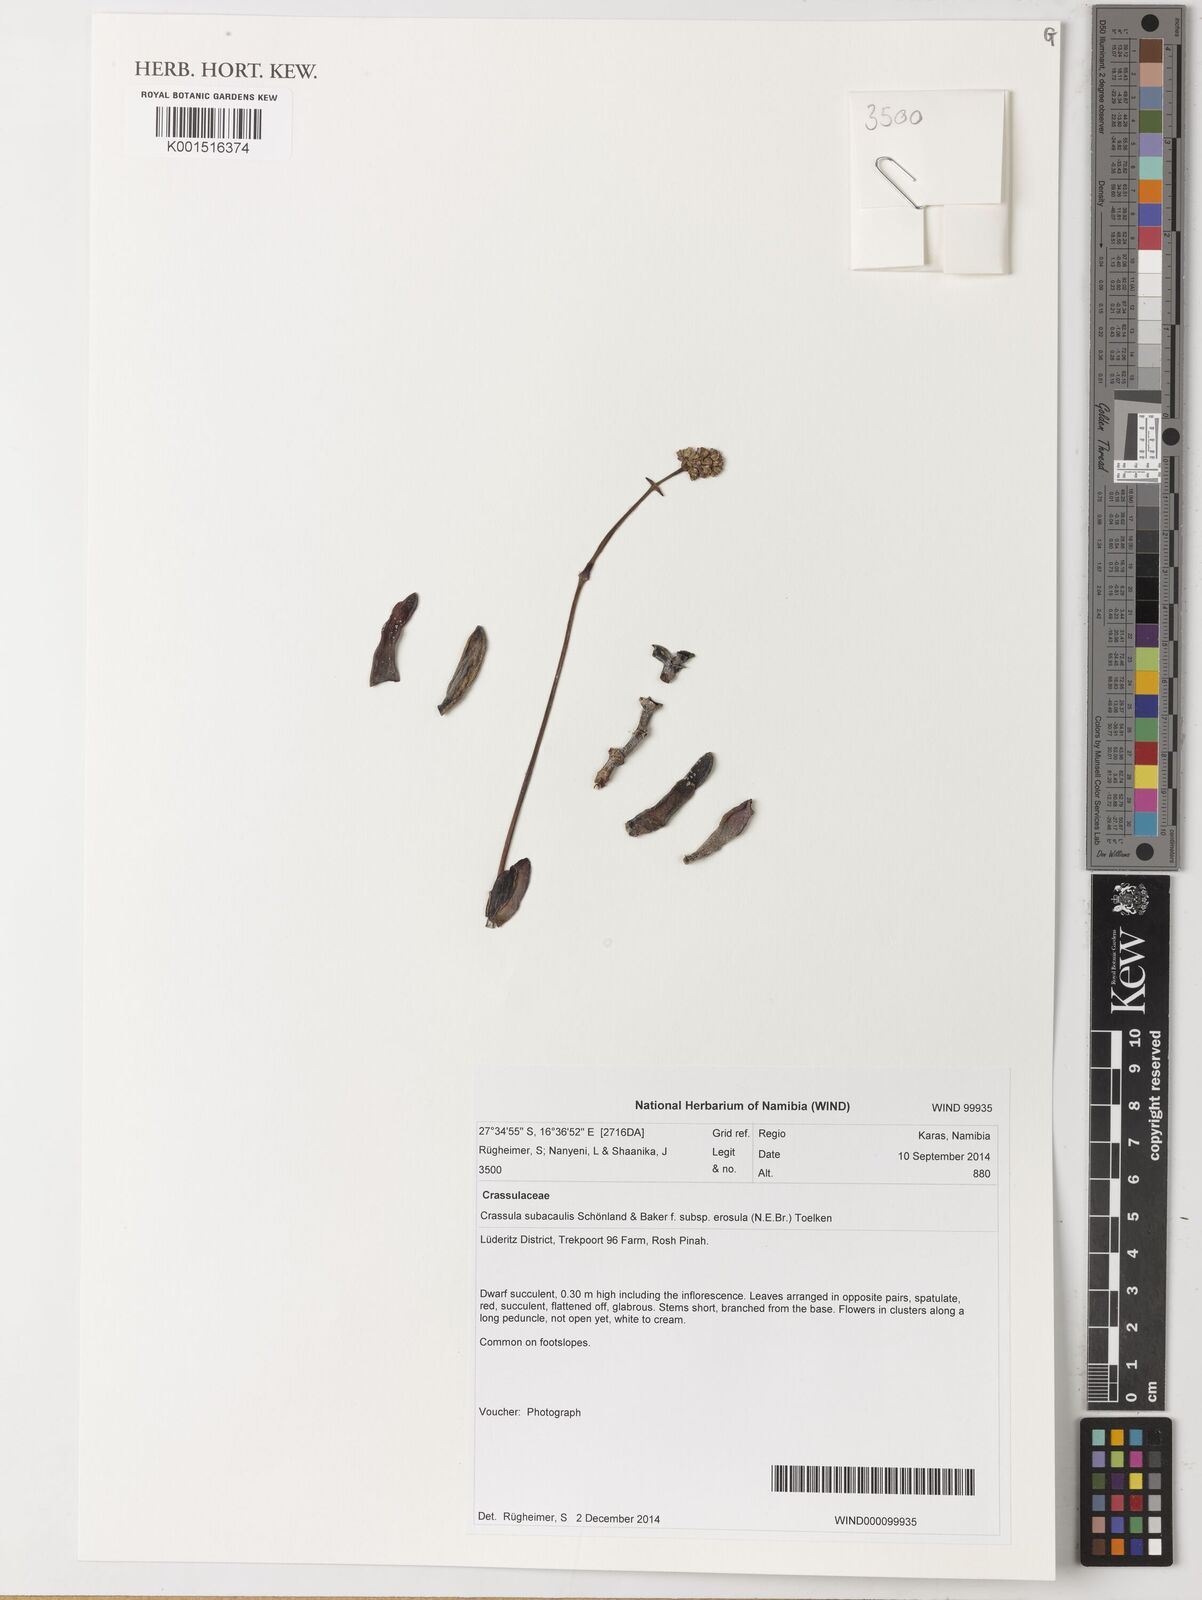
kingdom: Plantae
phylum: Tracheophyta
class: Magnoliopsida
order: Saxifragales
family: Crassulaceae
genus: Crassula
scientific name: Crassula subacaulis
